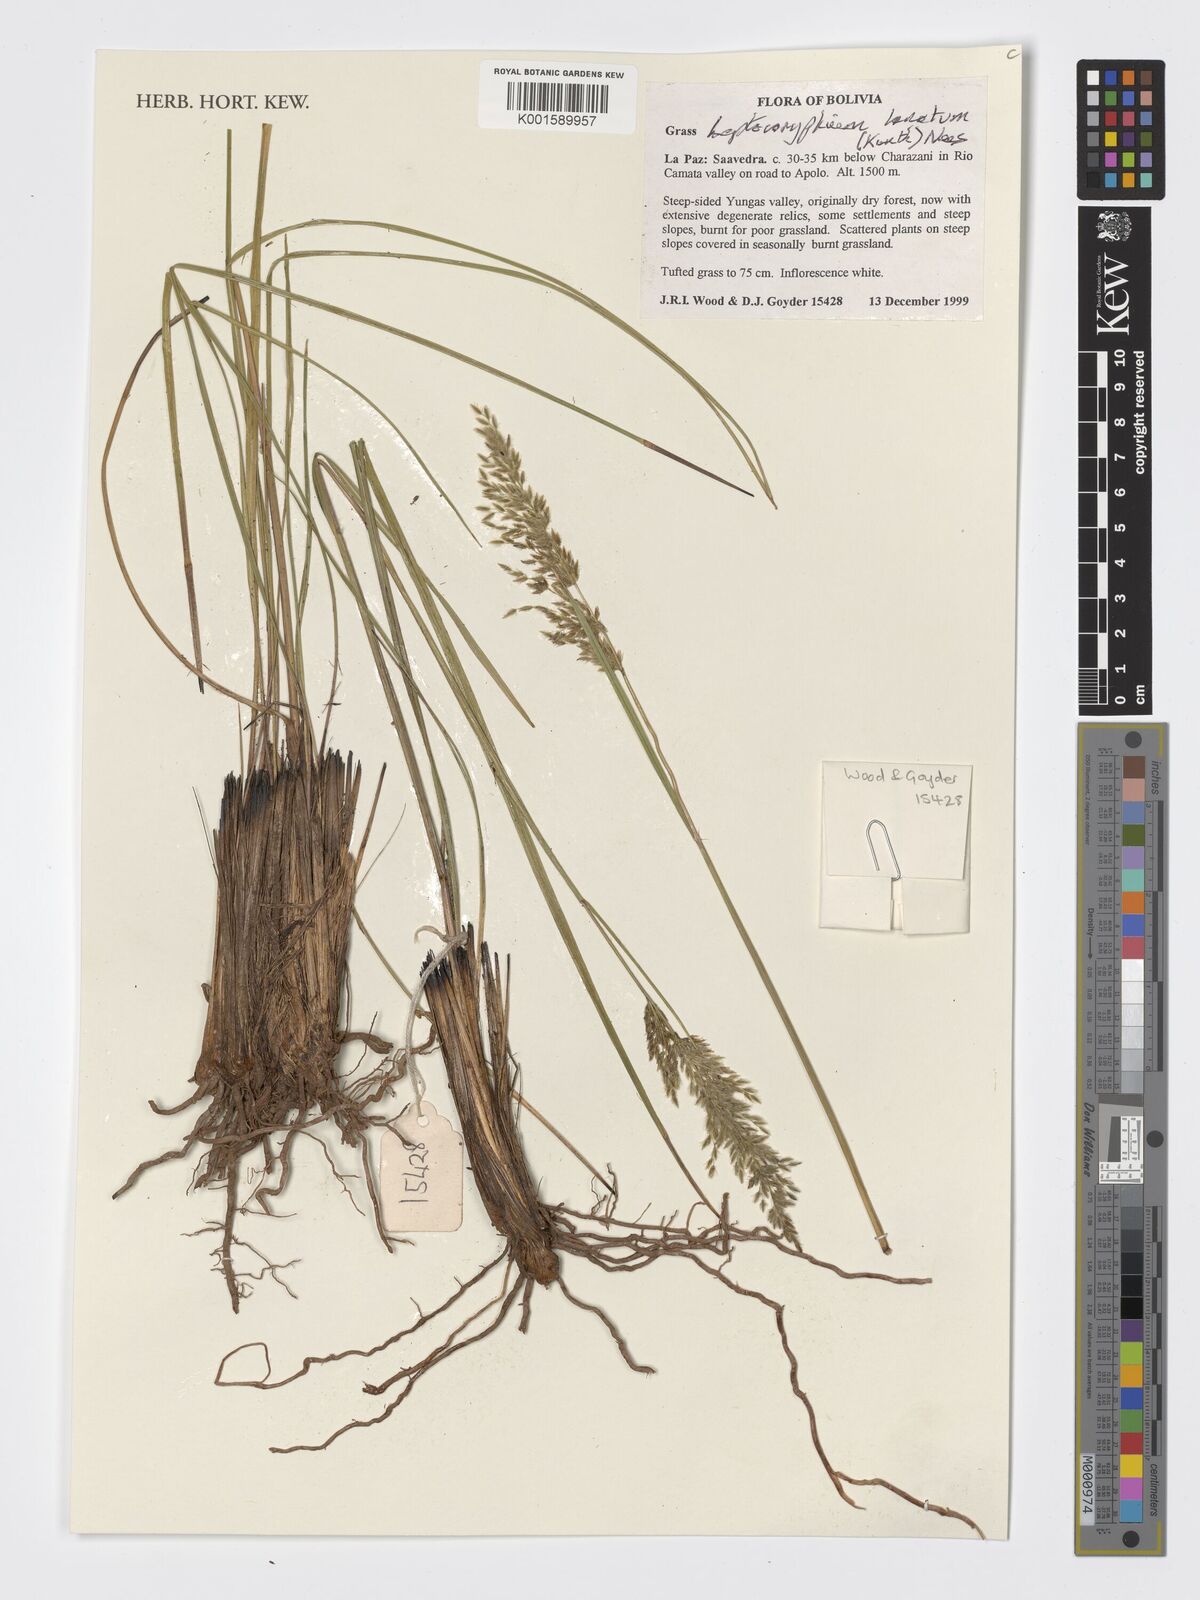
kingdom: Plantae
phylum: Tracheophyta
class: Liliopsida
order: Poales
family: Poaceae
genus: Anthenantia
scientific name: Anthenantia lanata
